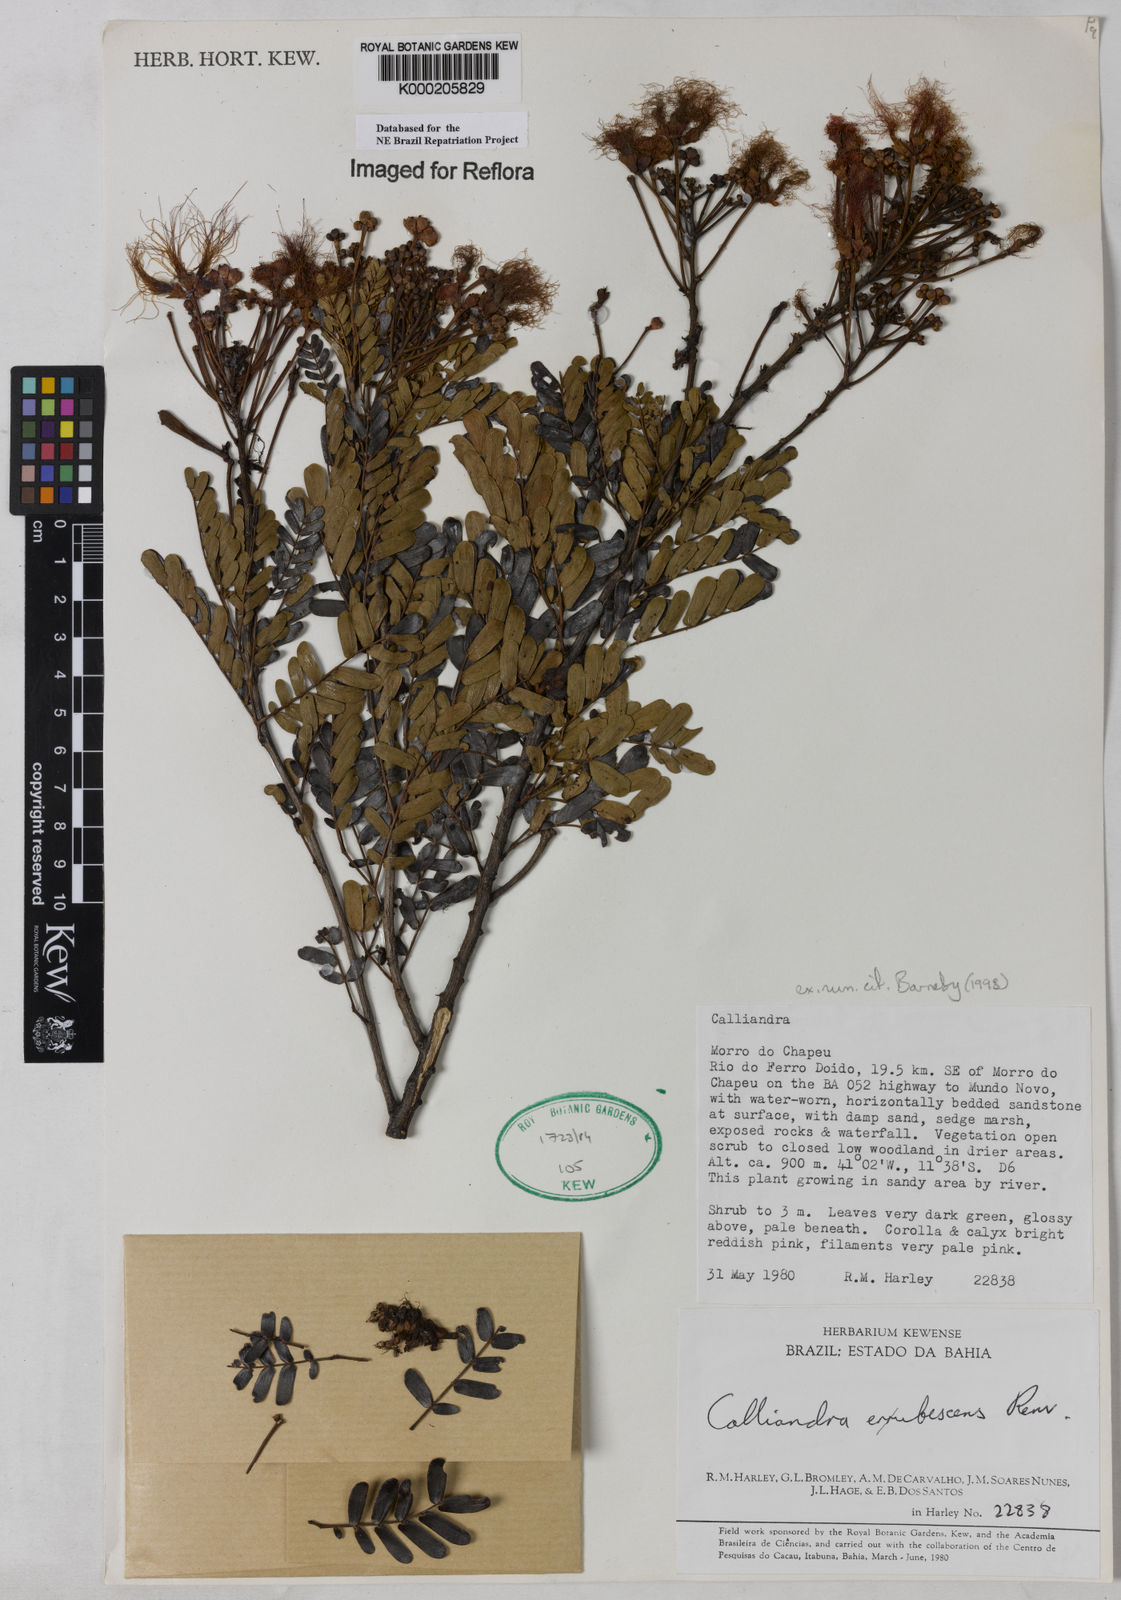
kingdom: Plantae
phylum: Tracheophyta
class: Magnoliopsida
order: Fabales
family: Fabaceae
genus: Calliandra
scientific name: Calliandra erubescens
